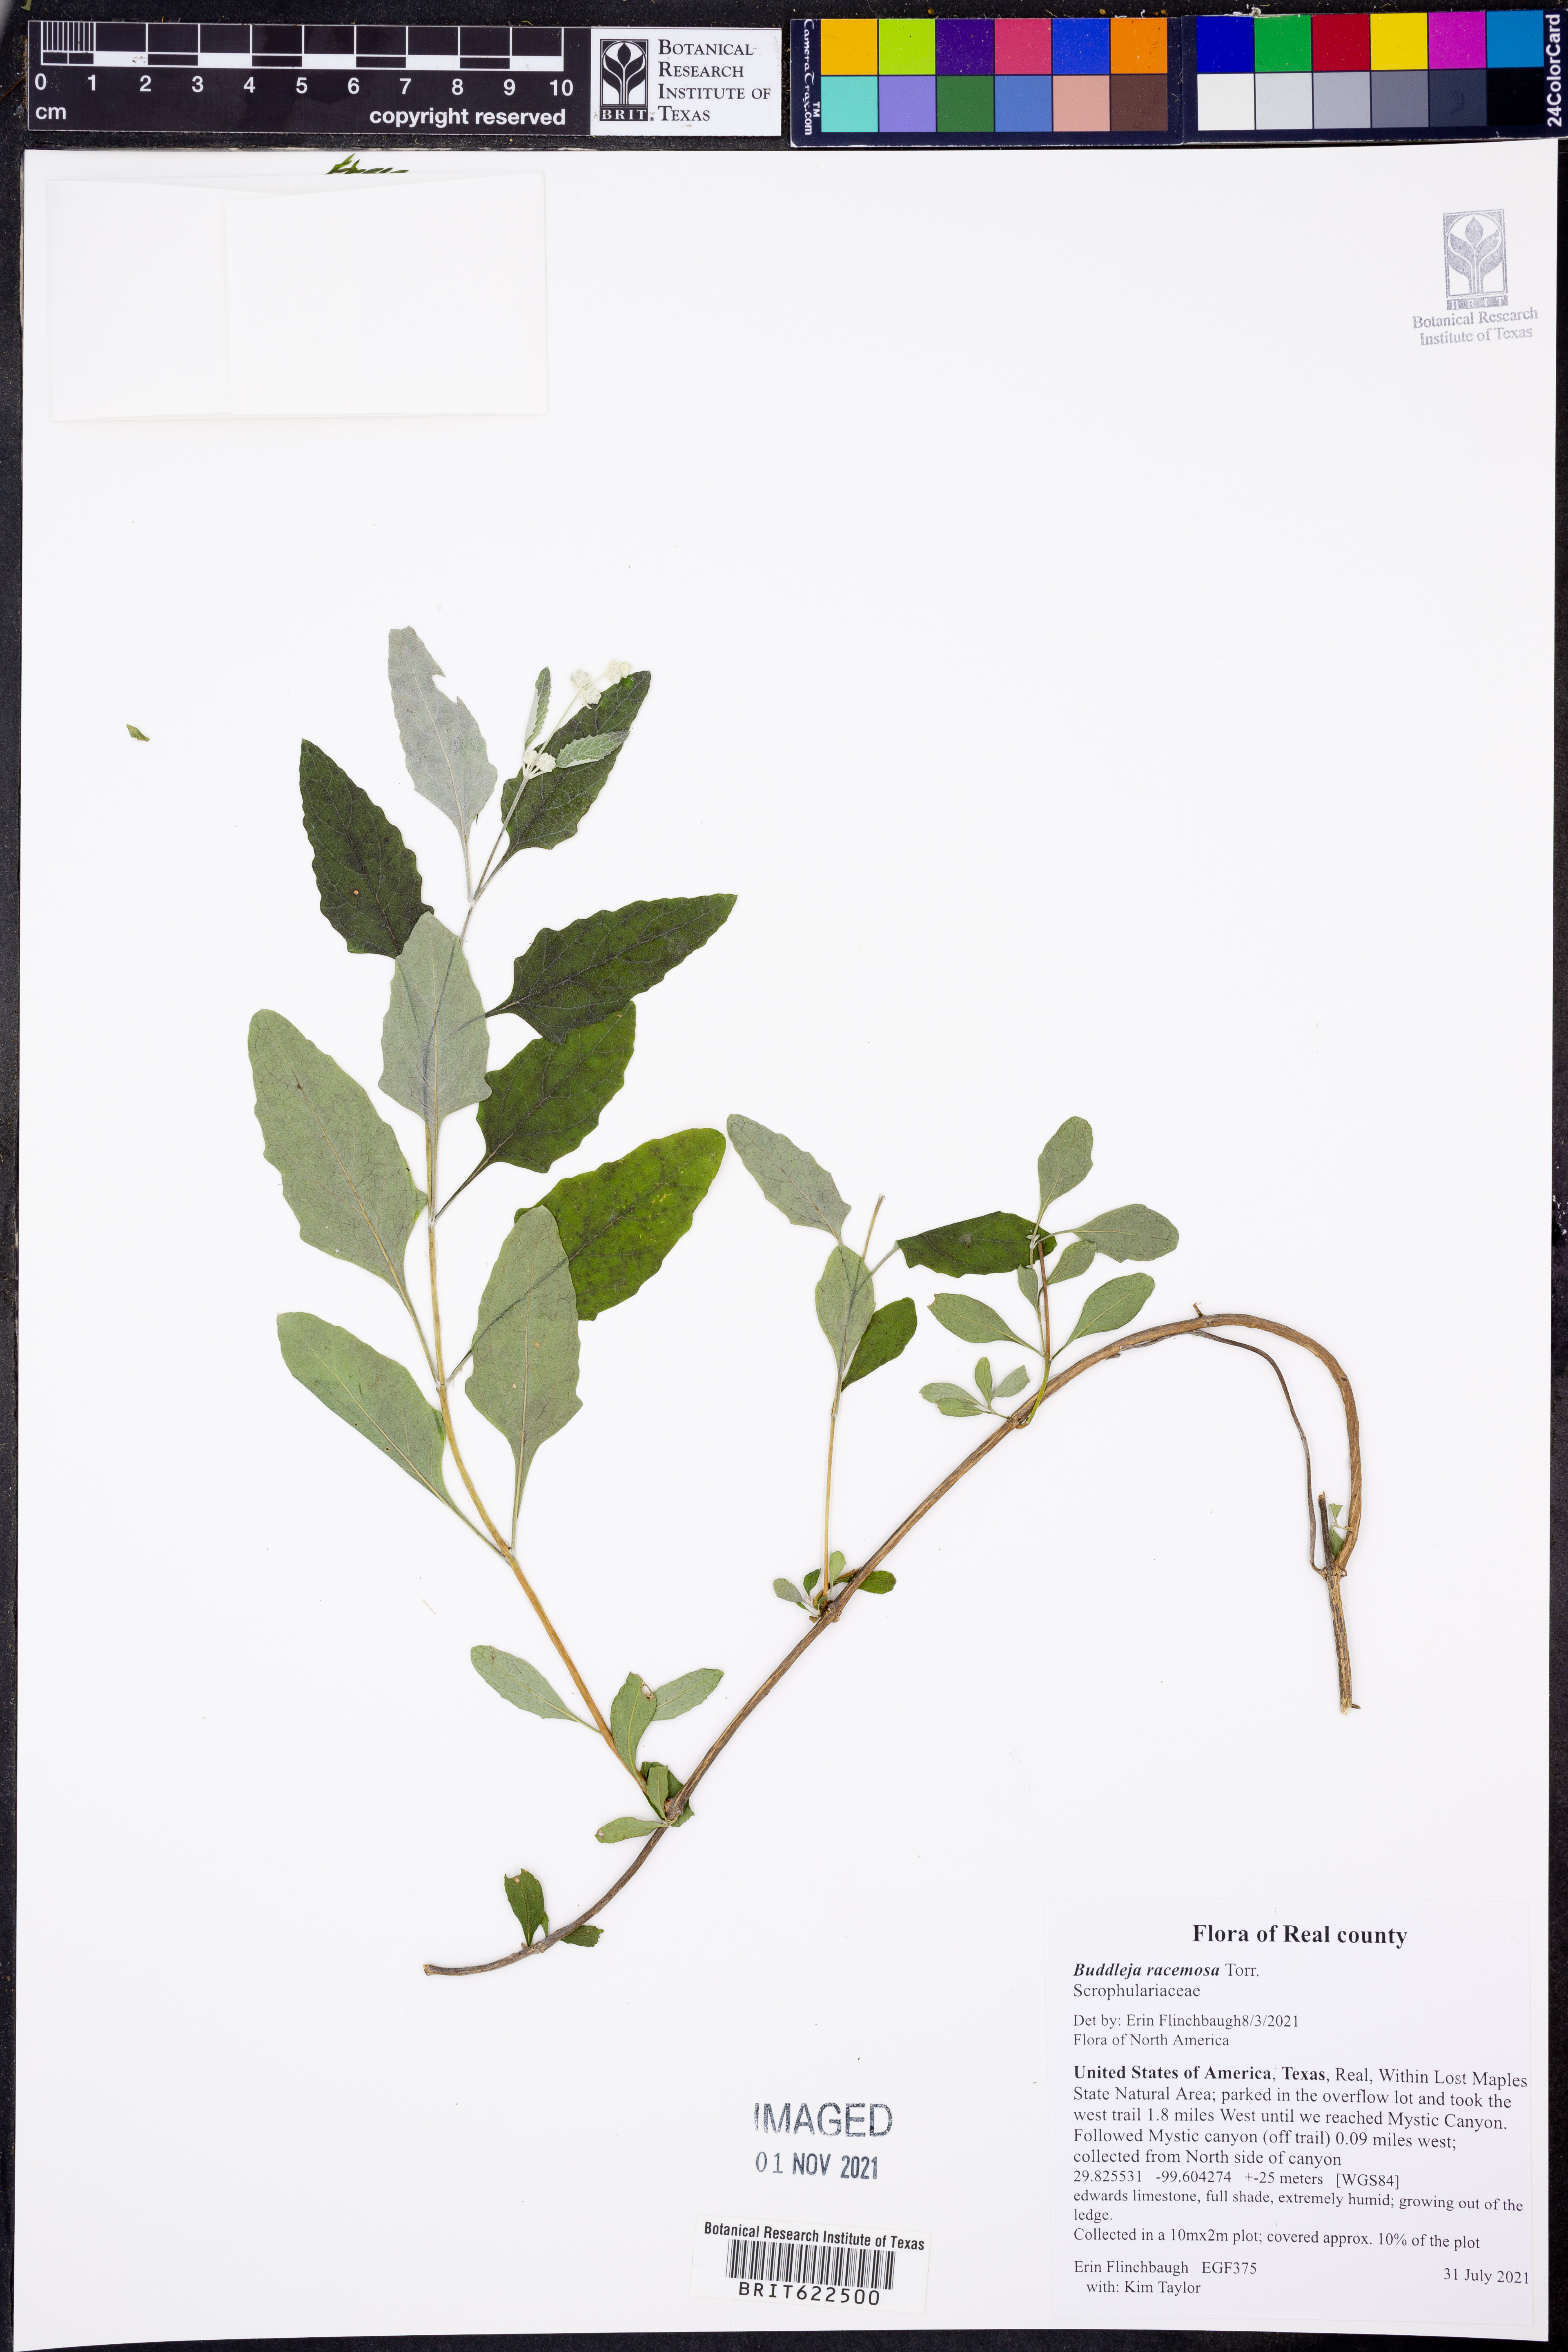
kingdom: Plantae
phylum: Tracheophyta
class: Magnoliopsida
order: Lamiales
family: Scrophulariaceae
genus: Buddleja
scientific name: Buddleja racemosa
